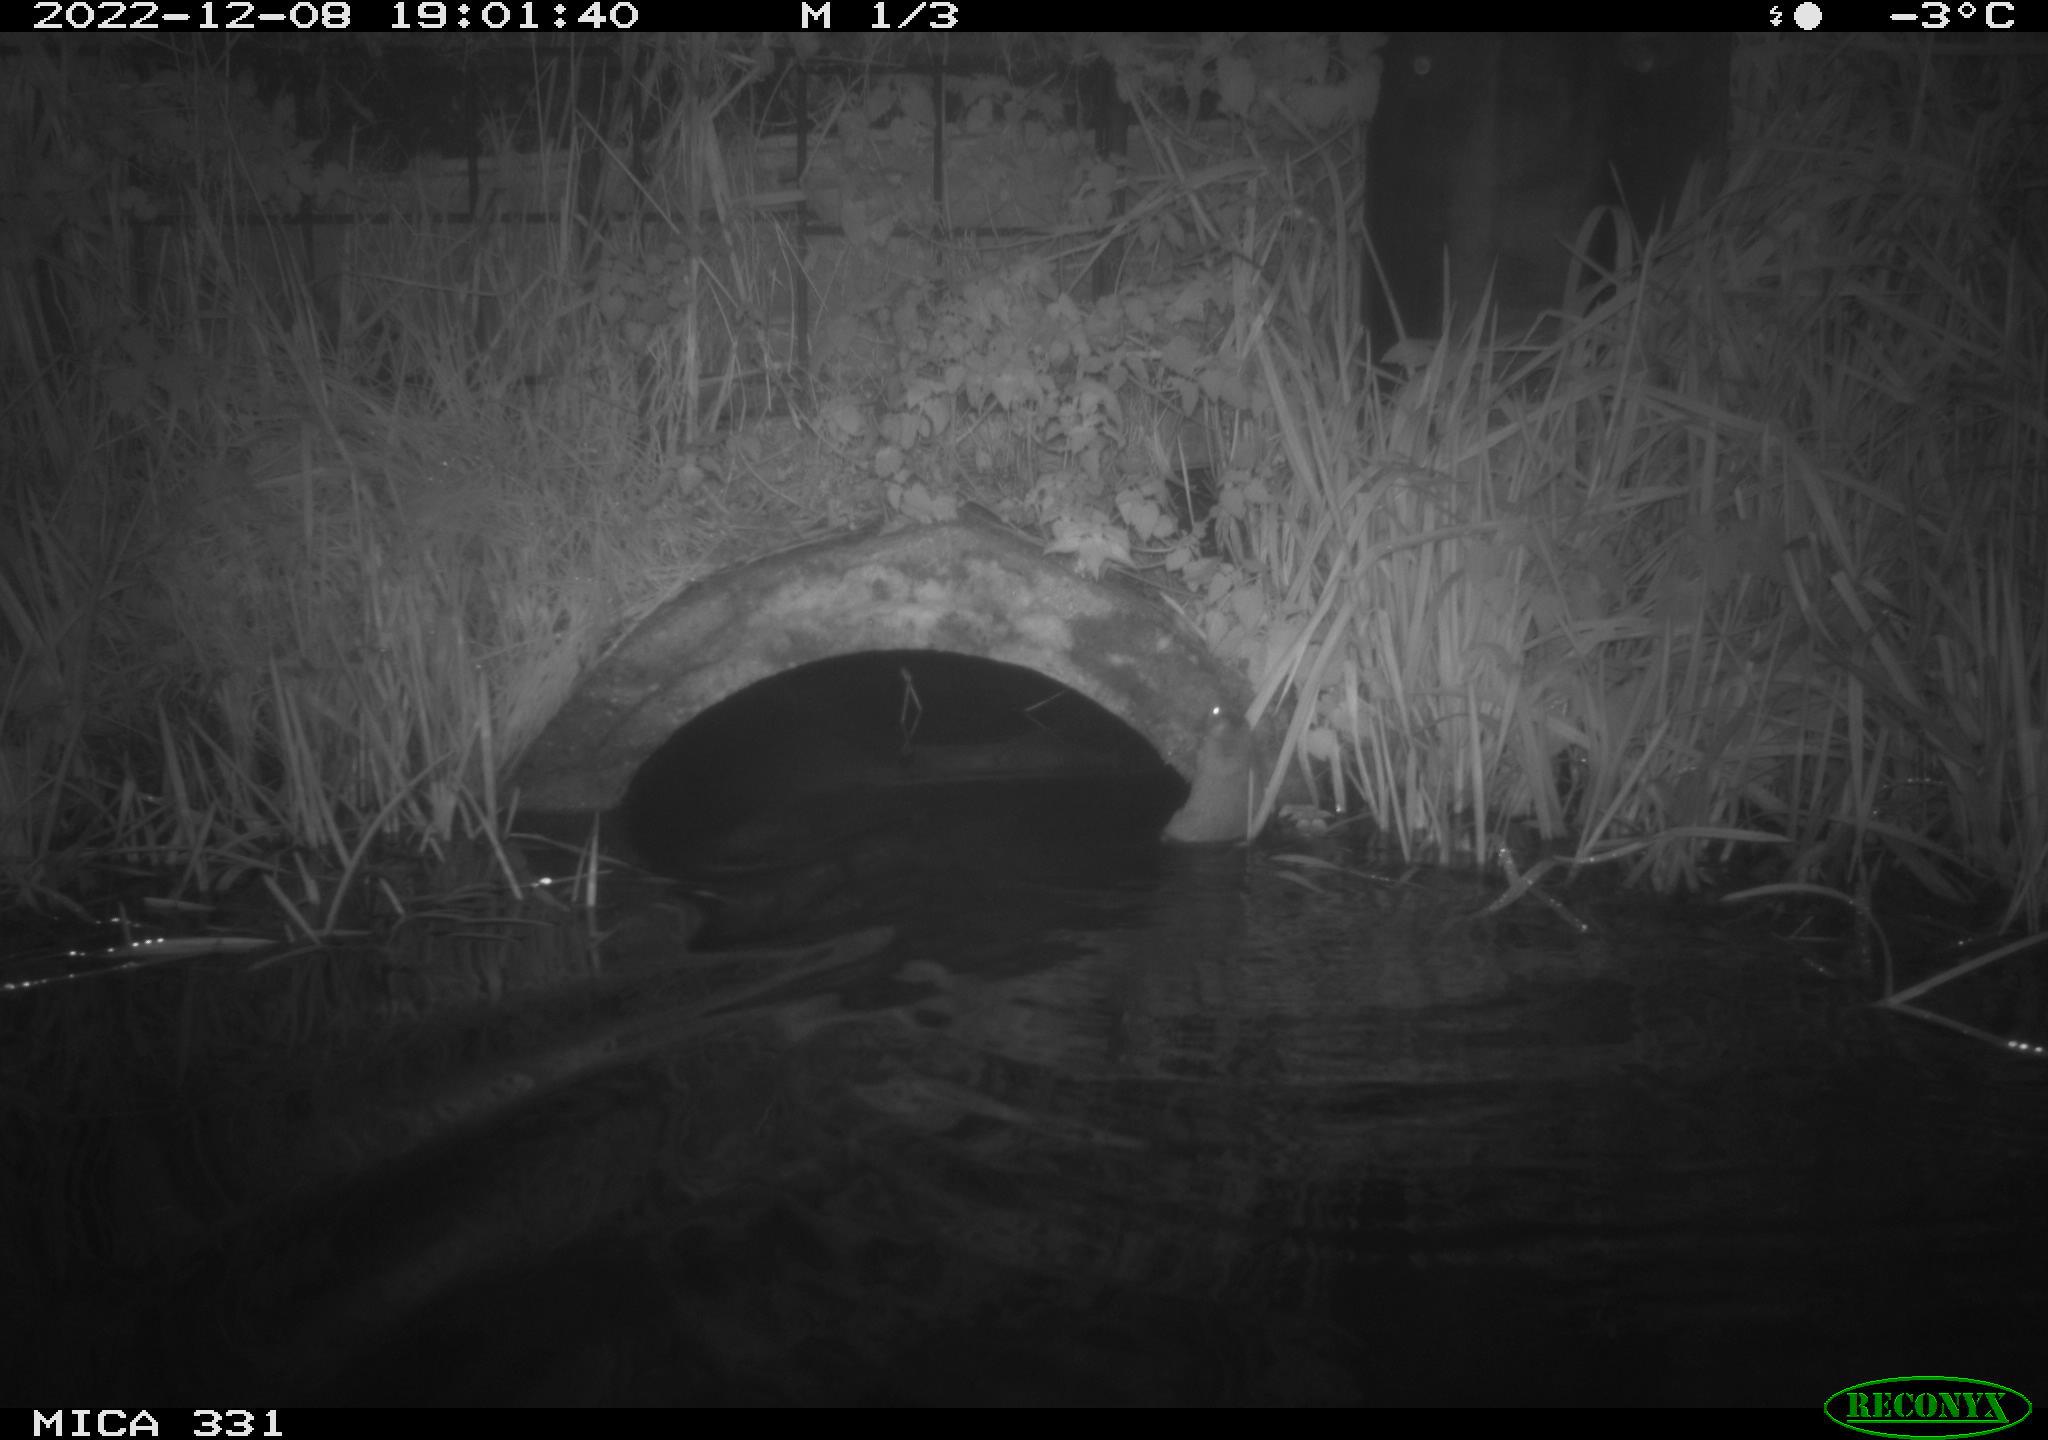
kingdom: Animalia
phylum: Chordata
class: Mammalia
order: Rodentia
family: Muridae
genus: Rattus
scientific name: Rattus norvegicus
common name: Brown rat
